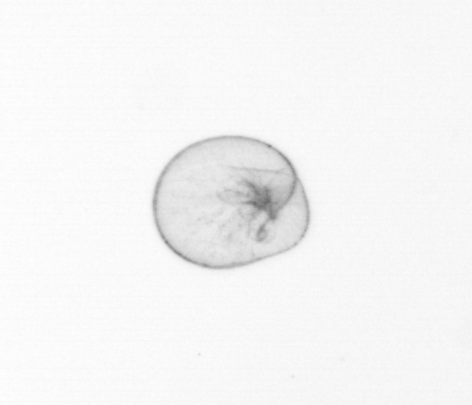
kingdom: Chromista
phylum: Myzozoa
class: Dinophyceae
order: Noctilucales
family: Noctilucaceae
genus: Noctiluca
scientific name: Noctiluca scintillans
